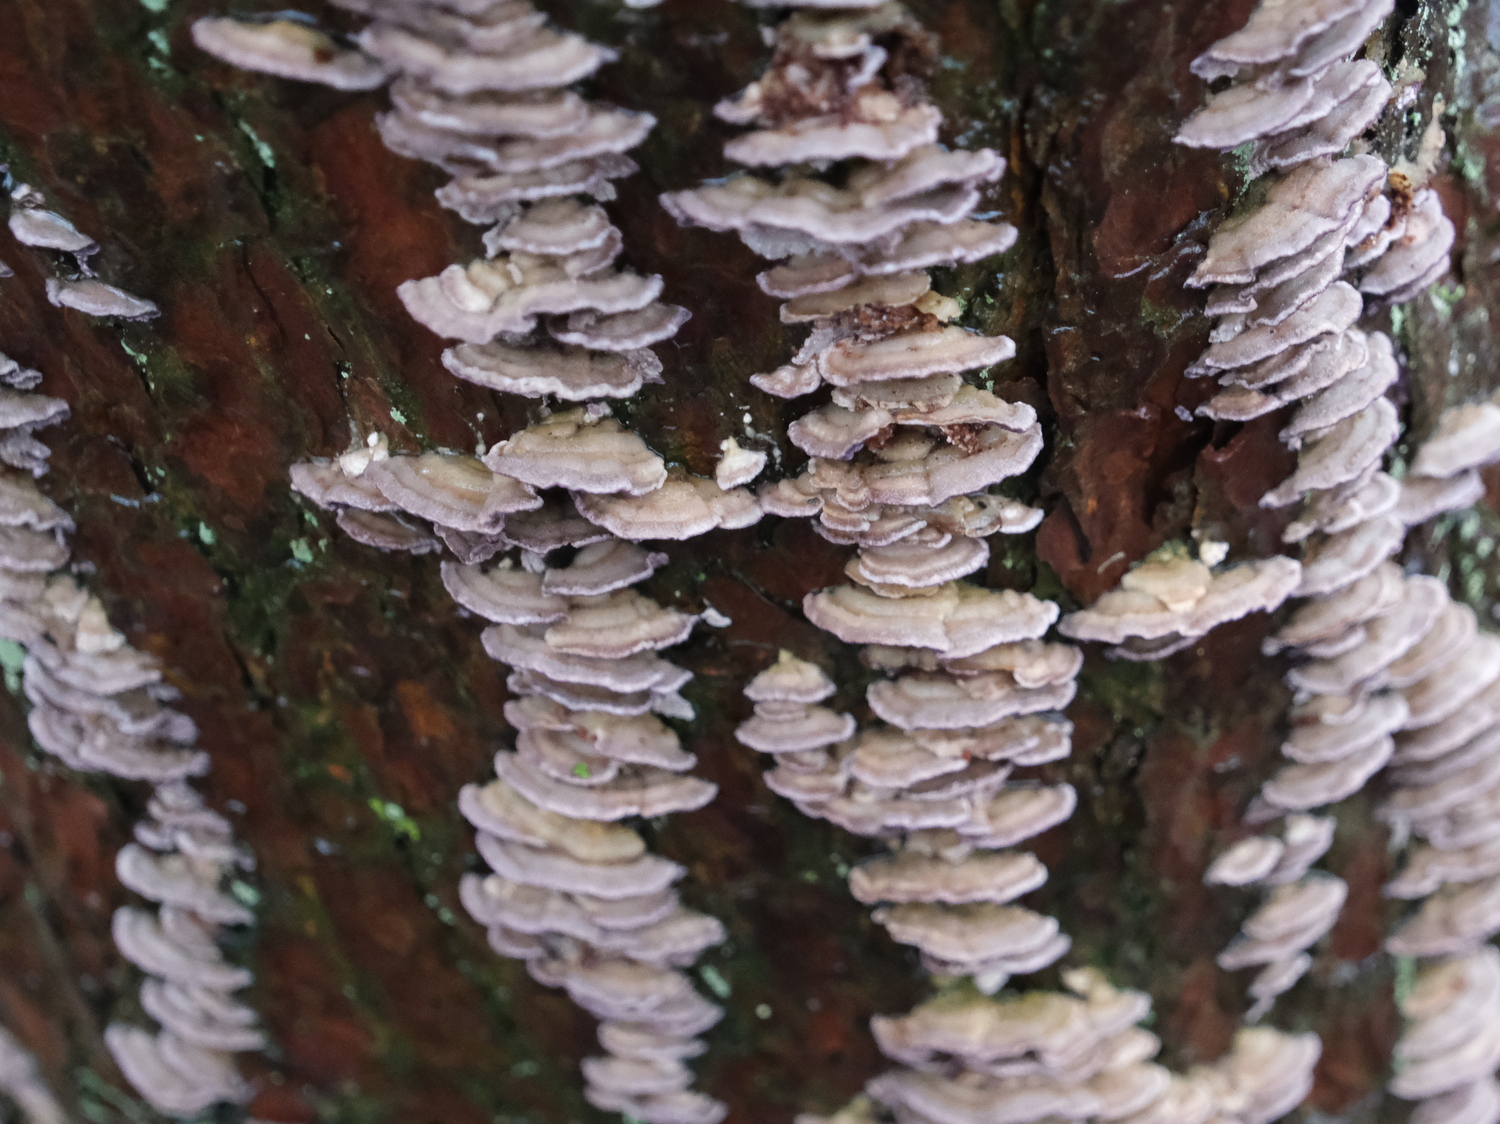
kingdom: Fungi
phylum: Basidiomycota
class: Agaricomycetes
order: Hymenochaetales
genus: Trichaptum
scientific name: Trichaptum abietinum
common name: almindelig violporesvamp
